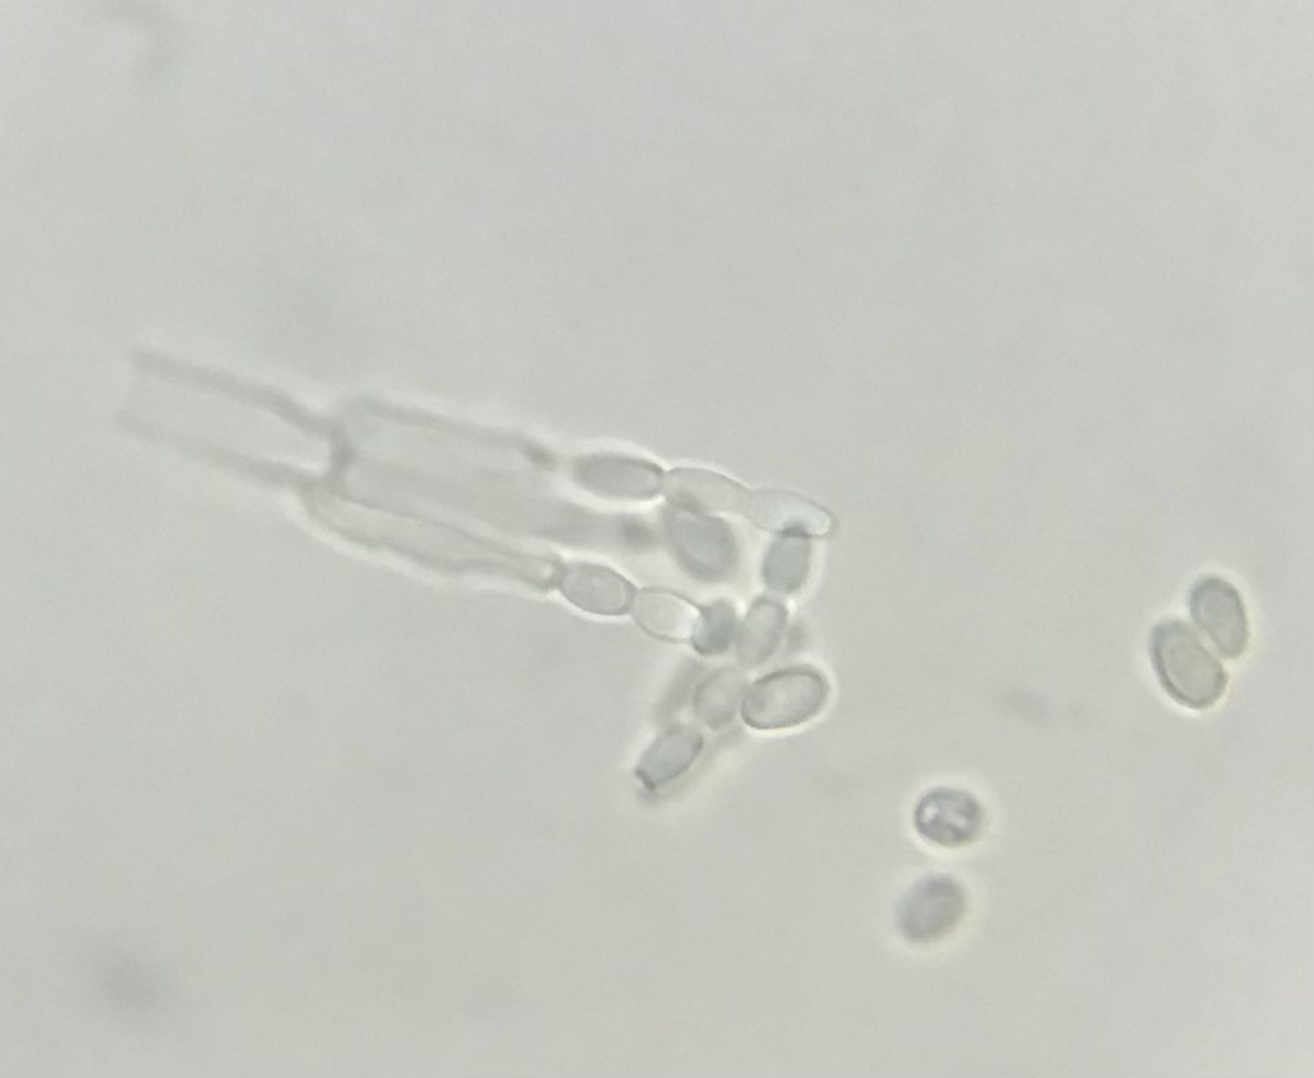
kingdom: Fungi
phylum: Ascomycota
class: Eurotiomycetes
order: Eurotiales
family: Aspergillaceae
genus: Penicillium
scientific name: Penicillium digitatum
